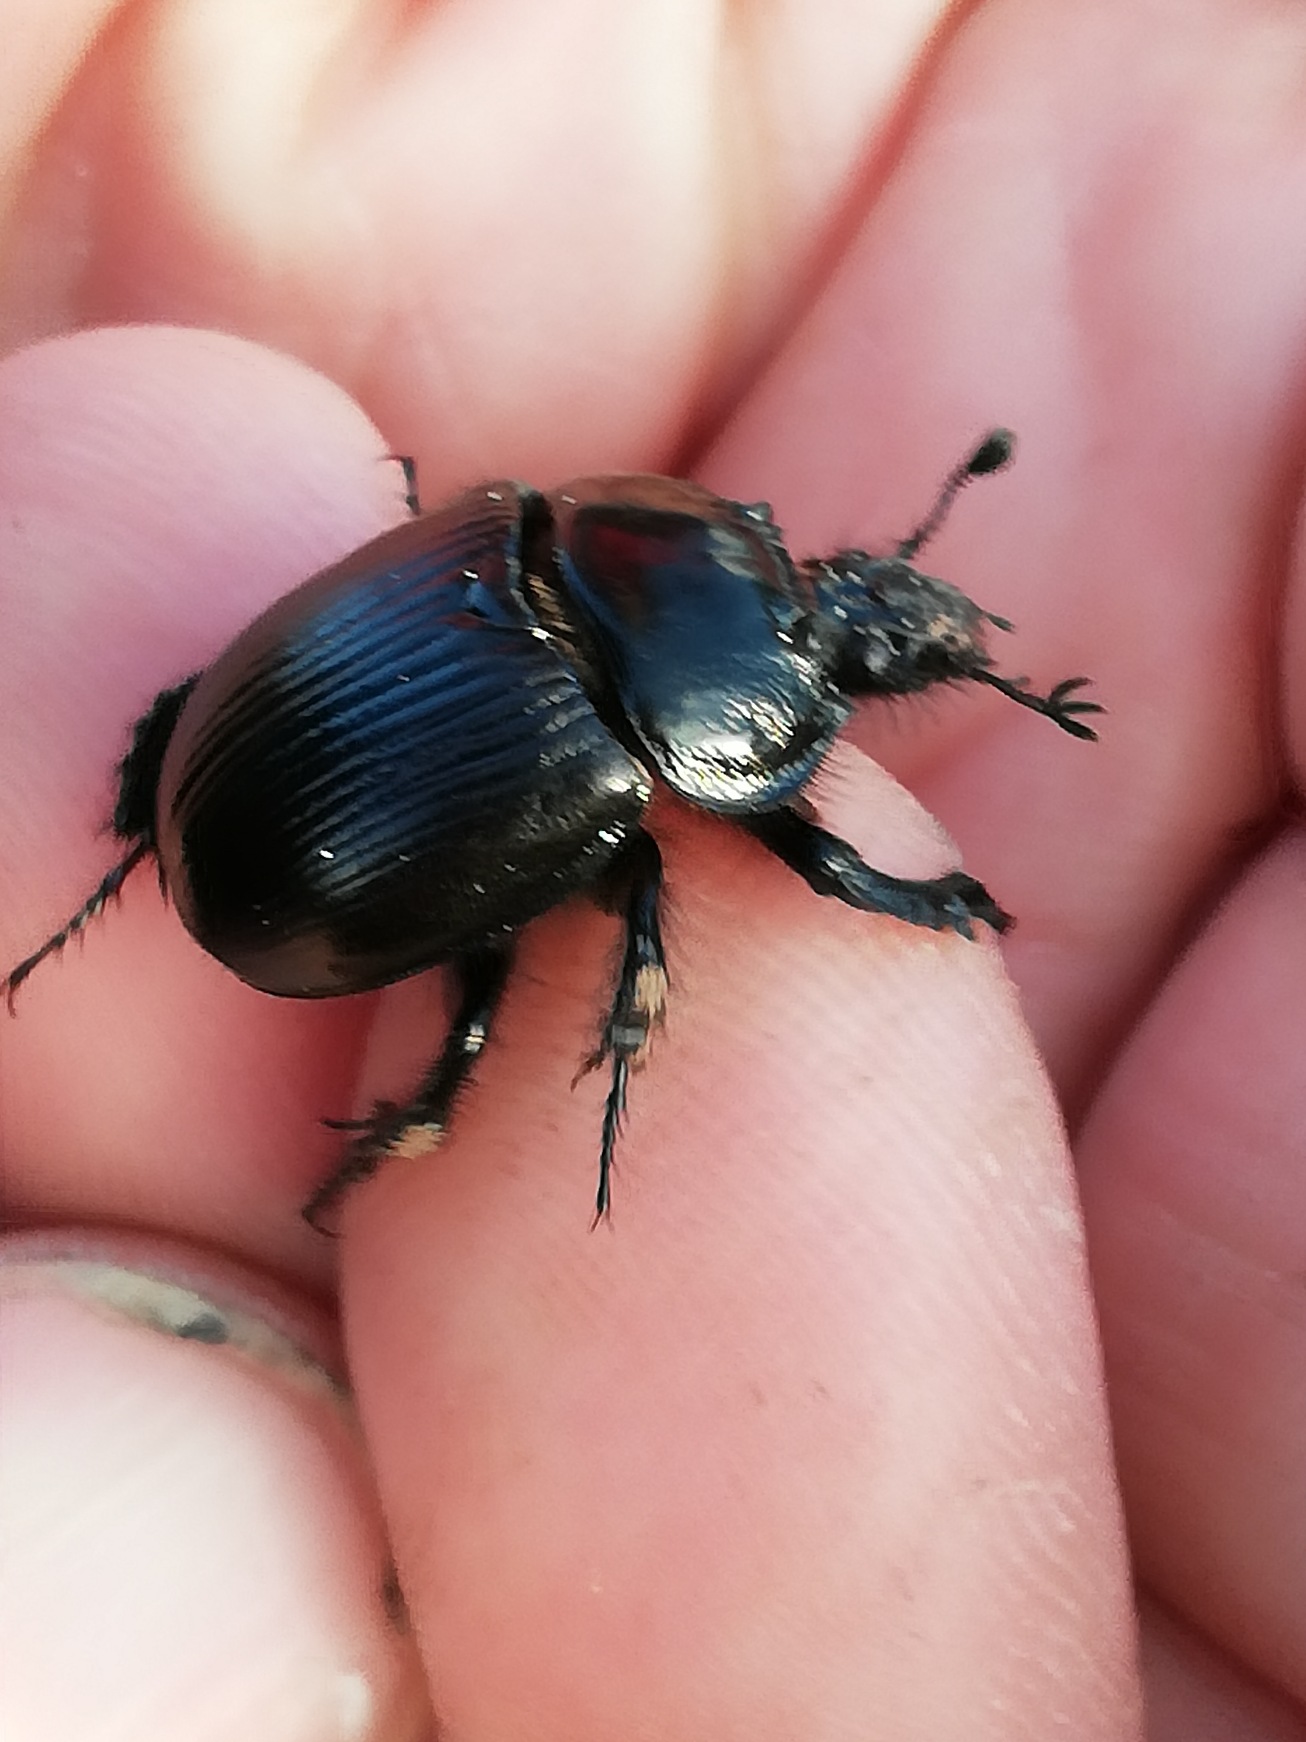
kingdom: Animalia
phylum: Arthropoda
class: Insecta
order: Coleoptera
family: Geotrupidae
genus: Typhaeus
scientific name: Typhaeus typhoeus
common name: Trehornet skarnbasse
